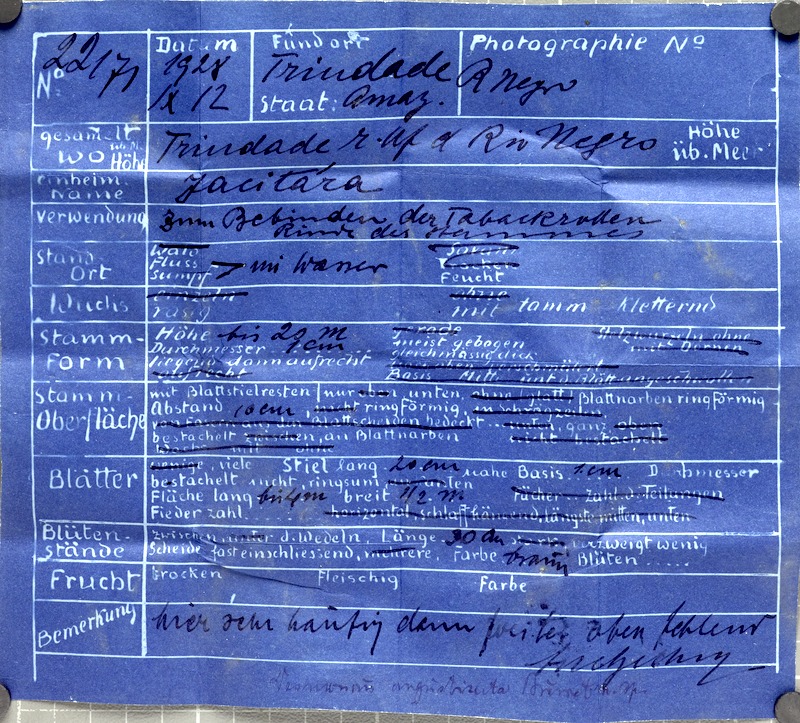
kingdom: Plantae
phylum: Tracheophyta
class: Liliopsida
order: Arecales
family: Arecaceae
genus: Desmoncus
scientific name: Desmoncus orthacanthos
